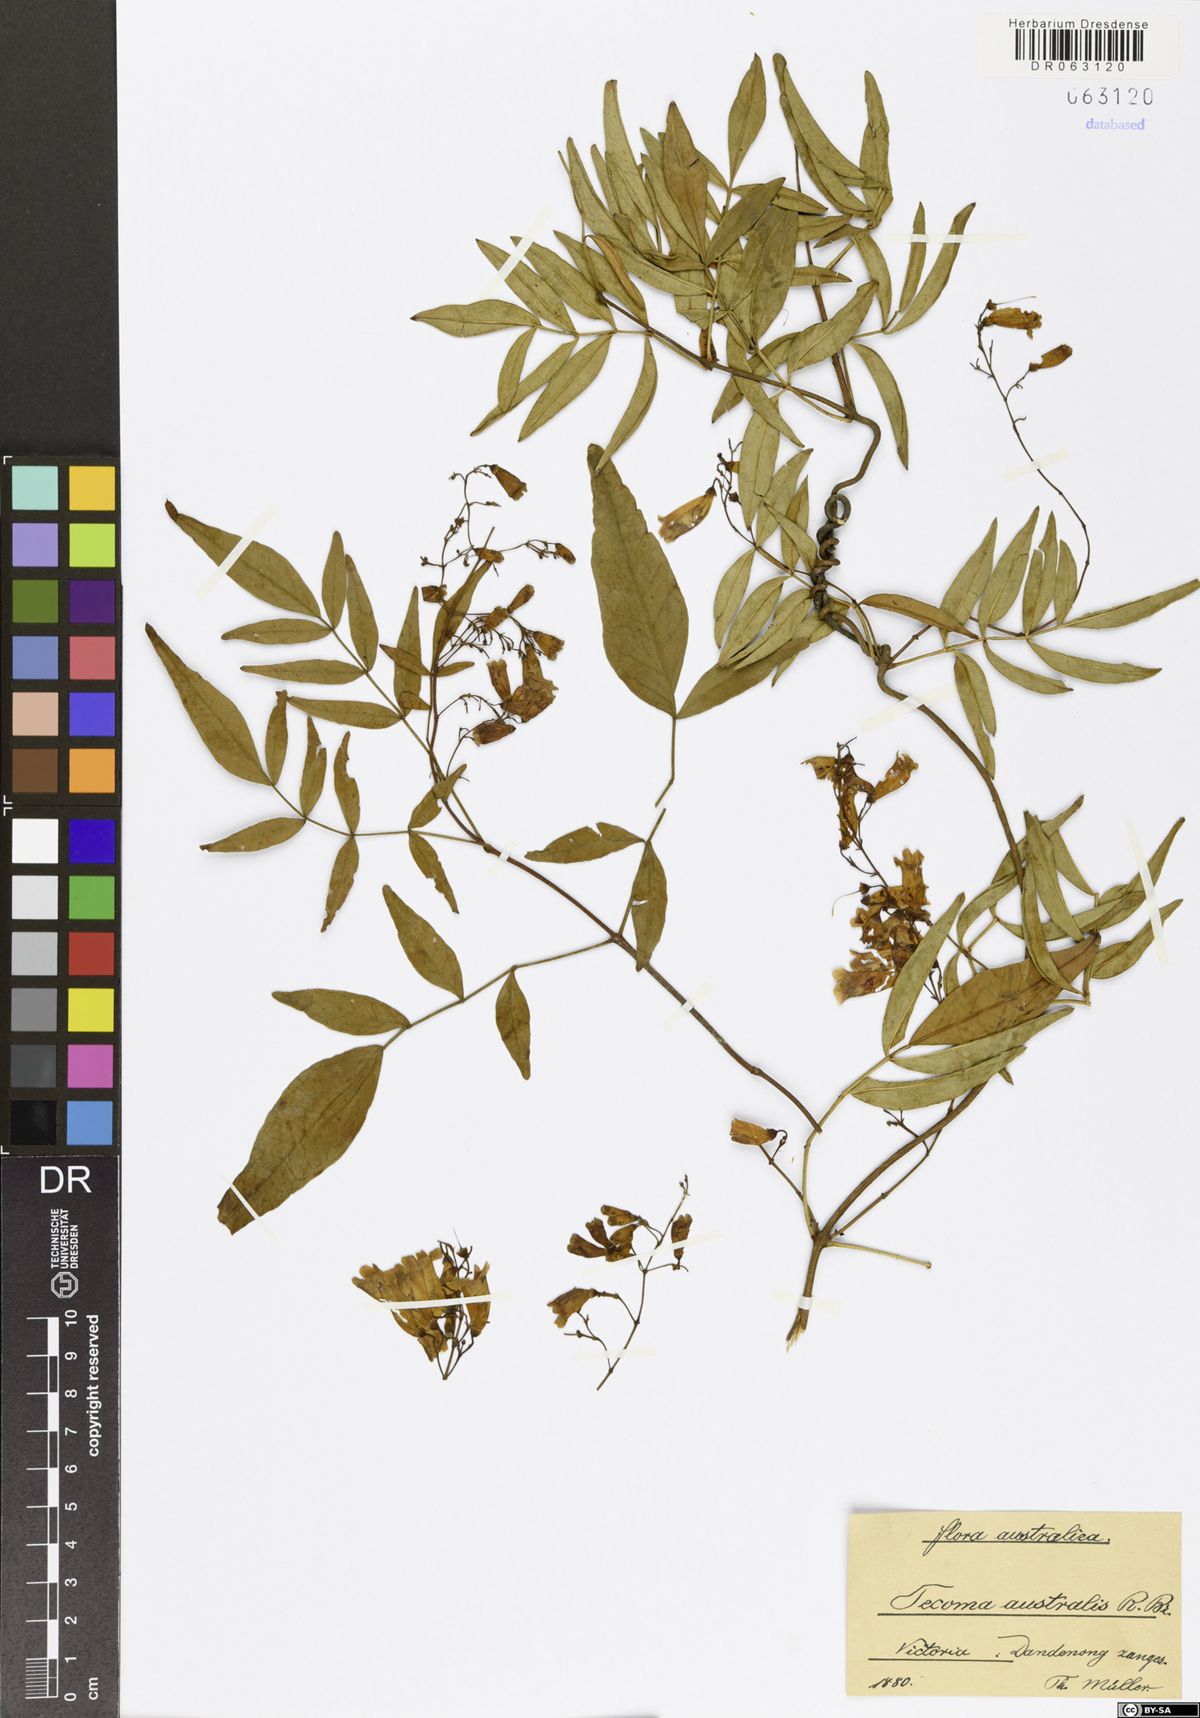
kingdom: Plantae
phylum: Tracheophyta
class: Magnoliopsida
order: Lamiales
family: Bignoniaceae
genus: Pandorea
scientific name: Pandorea pandorana
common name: Wonga-wonga-vine
